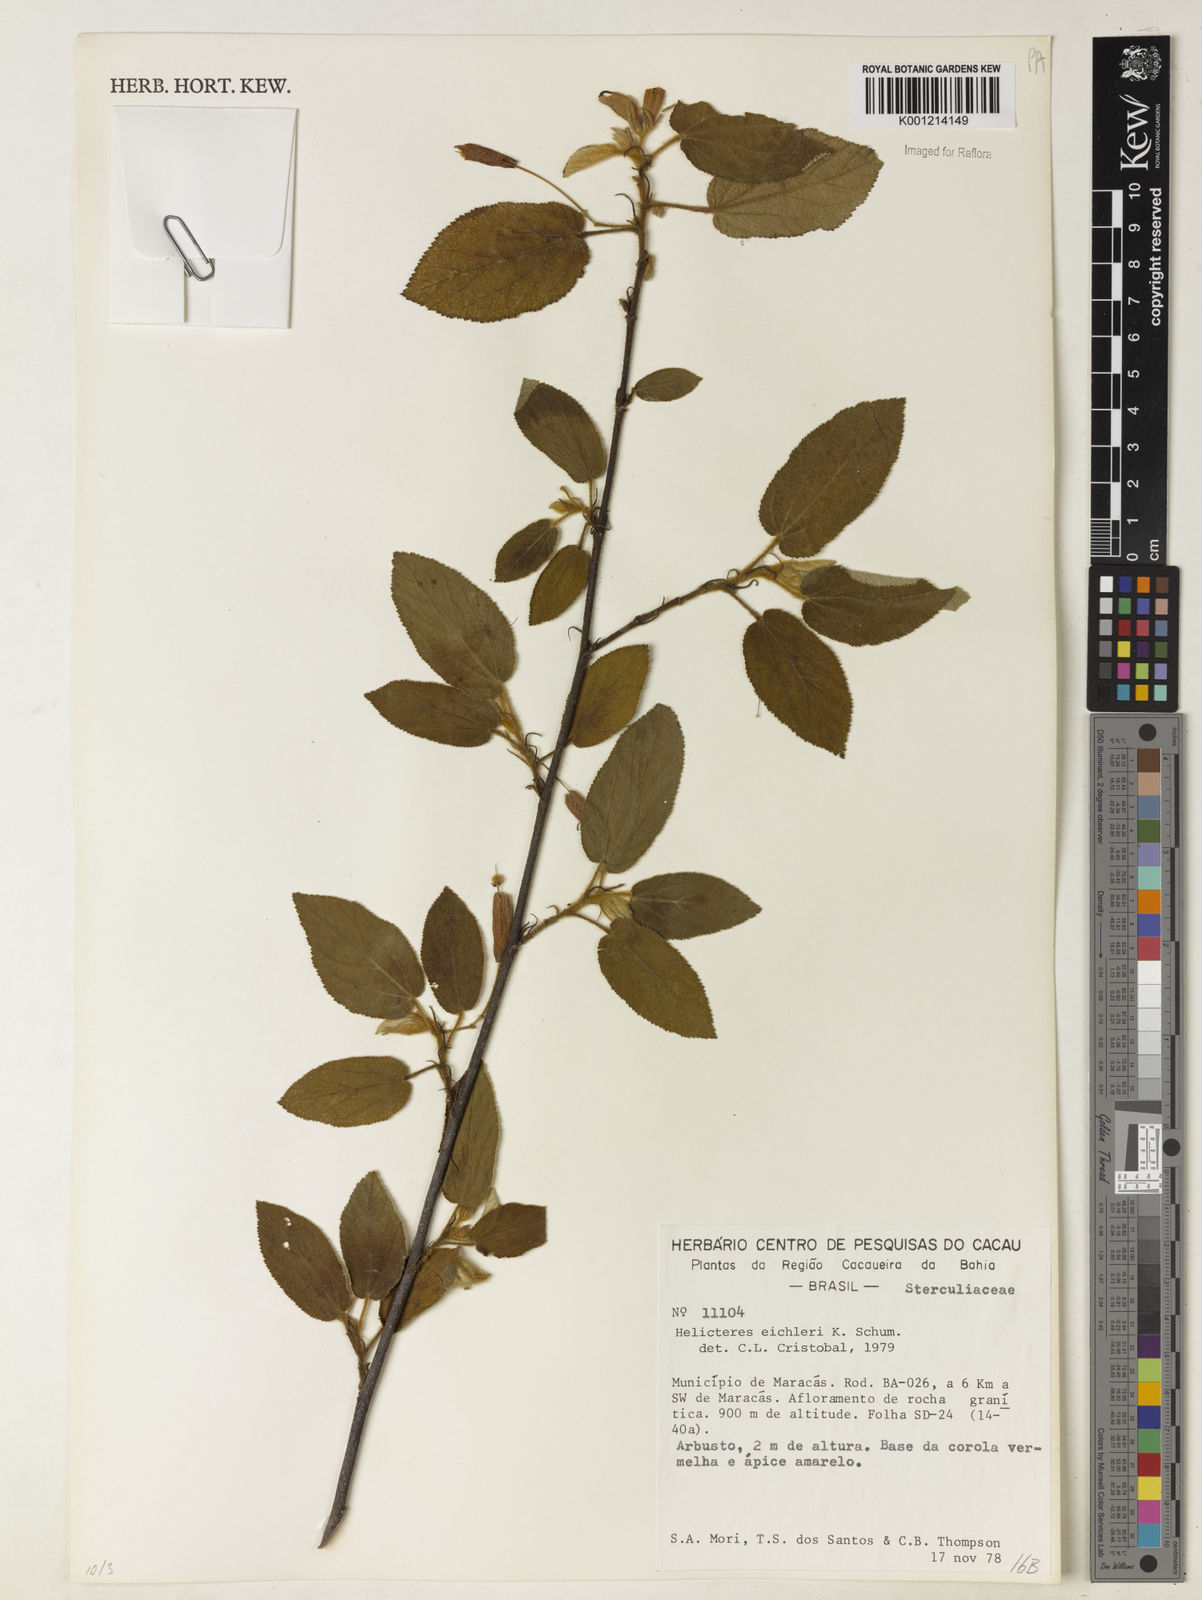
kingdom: Plantae
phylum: Tracheophyta
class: Magnoliopsida
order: Malvales
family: Malvaceae
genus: Helicteres
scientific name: Helicteres eichleri
